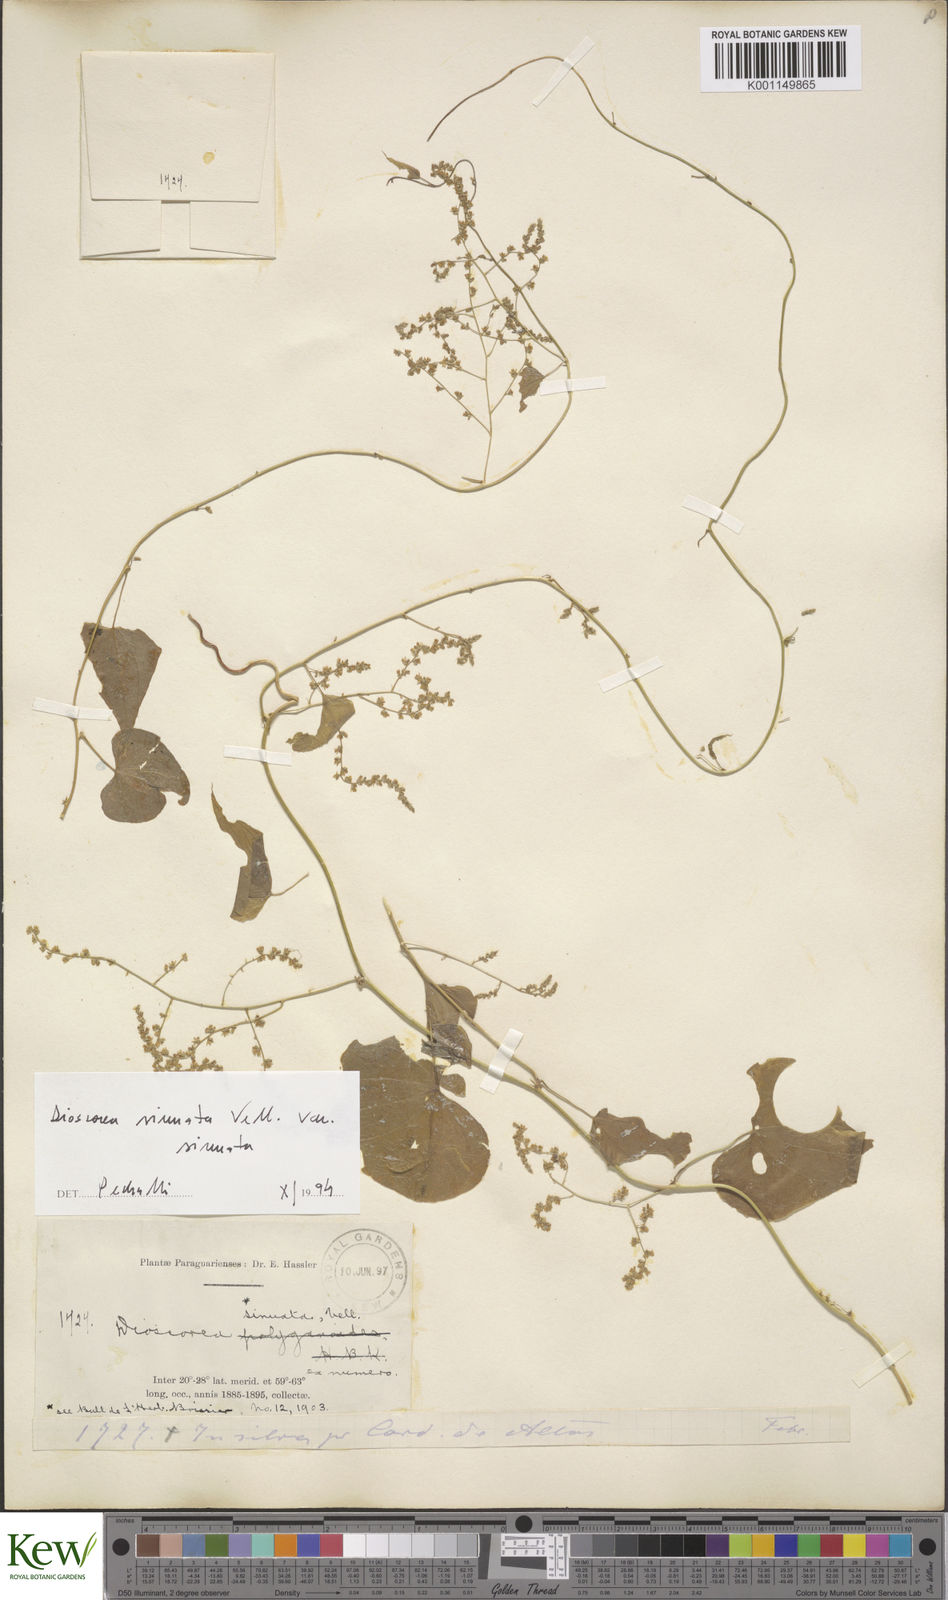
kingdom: Plantae
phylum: Tracheophyta
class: Liliopsida
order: Dioscoreales
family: Dioscoreaceae
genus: Dioscorea
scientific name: Dioscorea sinuata
